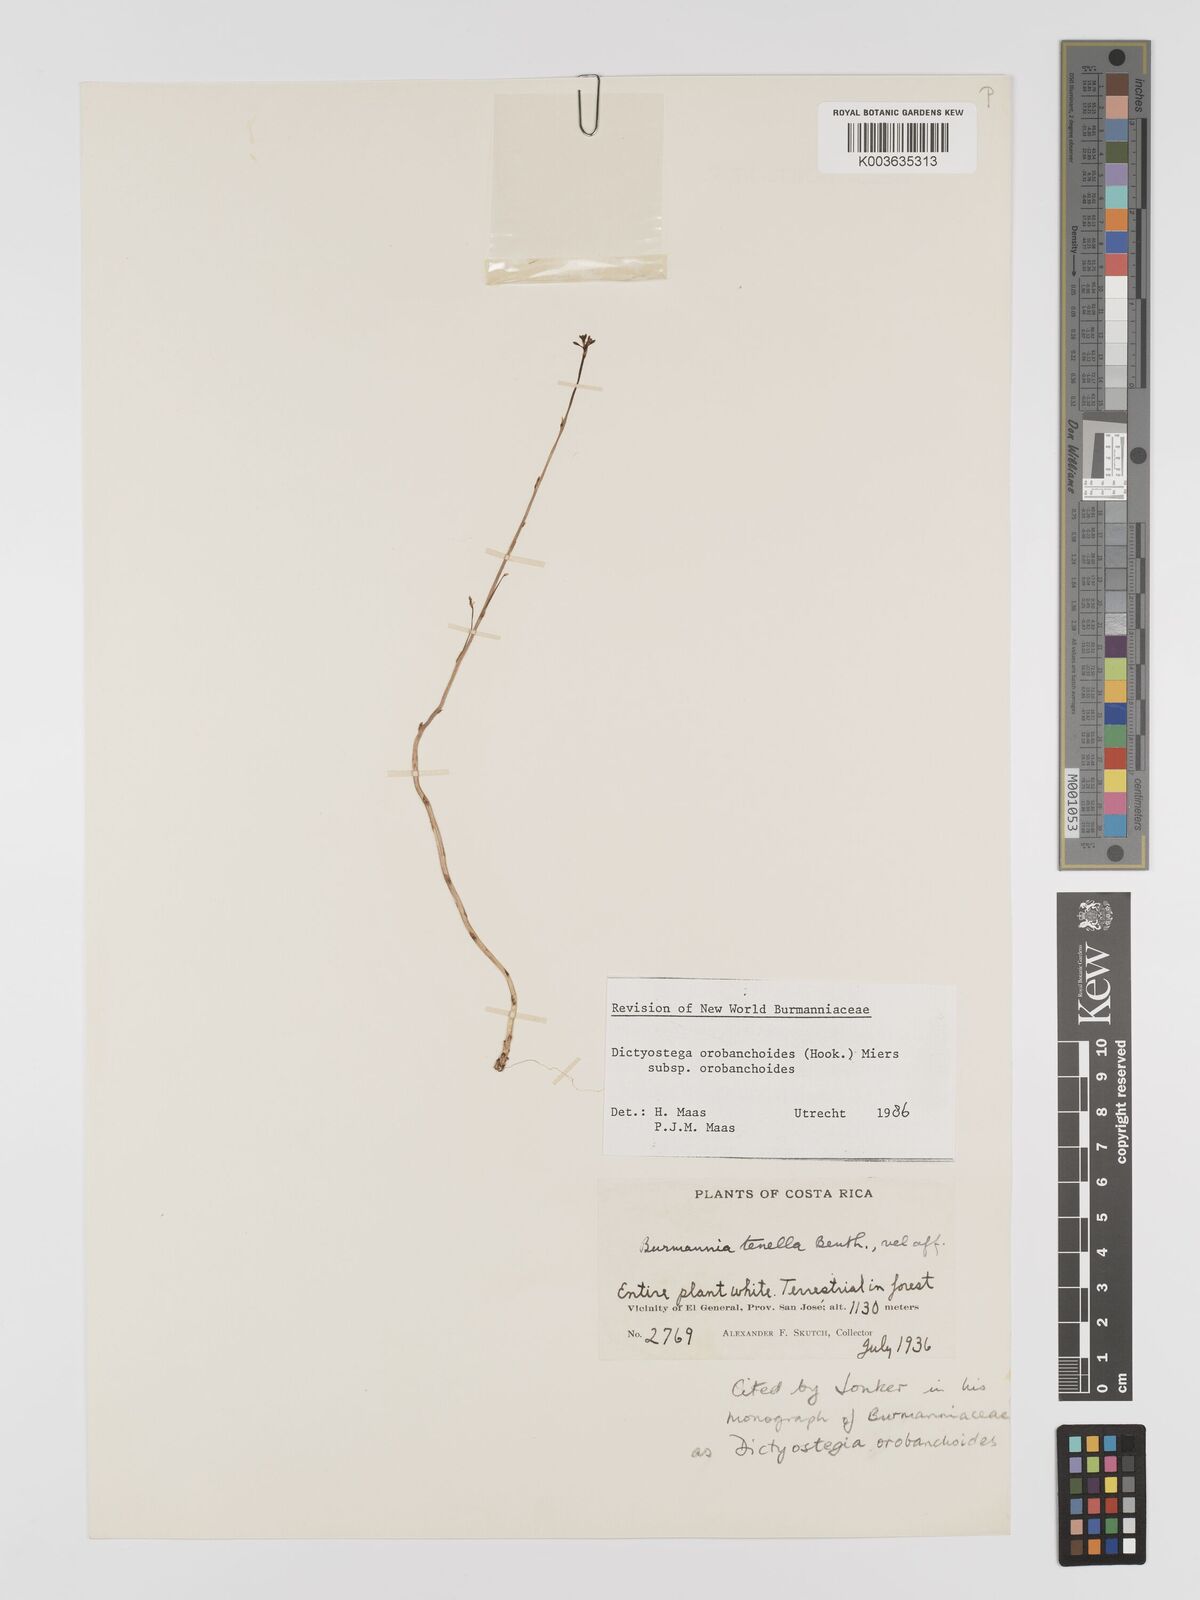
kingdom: Plantae
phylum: Tracheophyta
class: Liliopsida
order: Dioscoreales
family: Burmanniaceae
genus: Dictyostega
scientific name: Dictyostega orobanchoides
